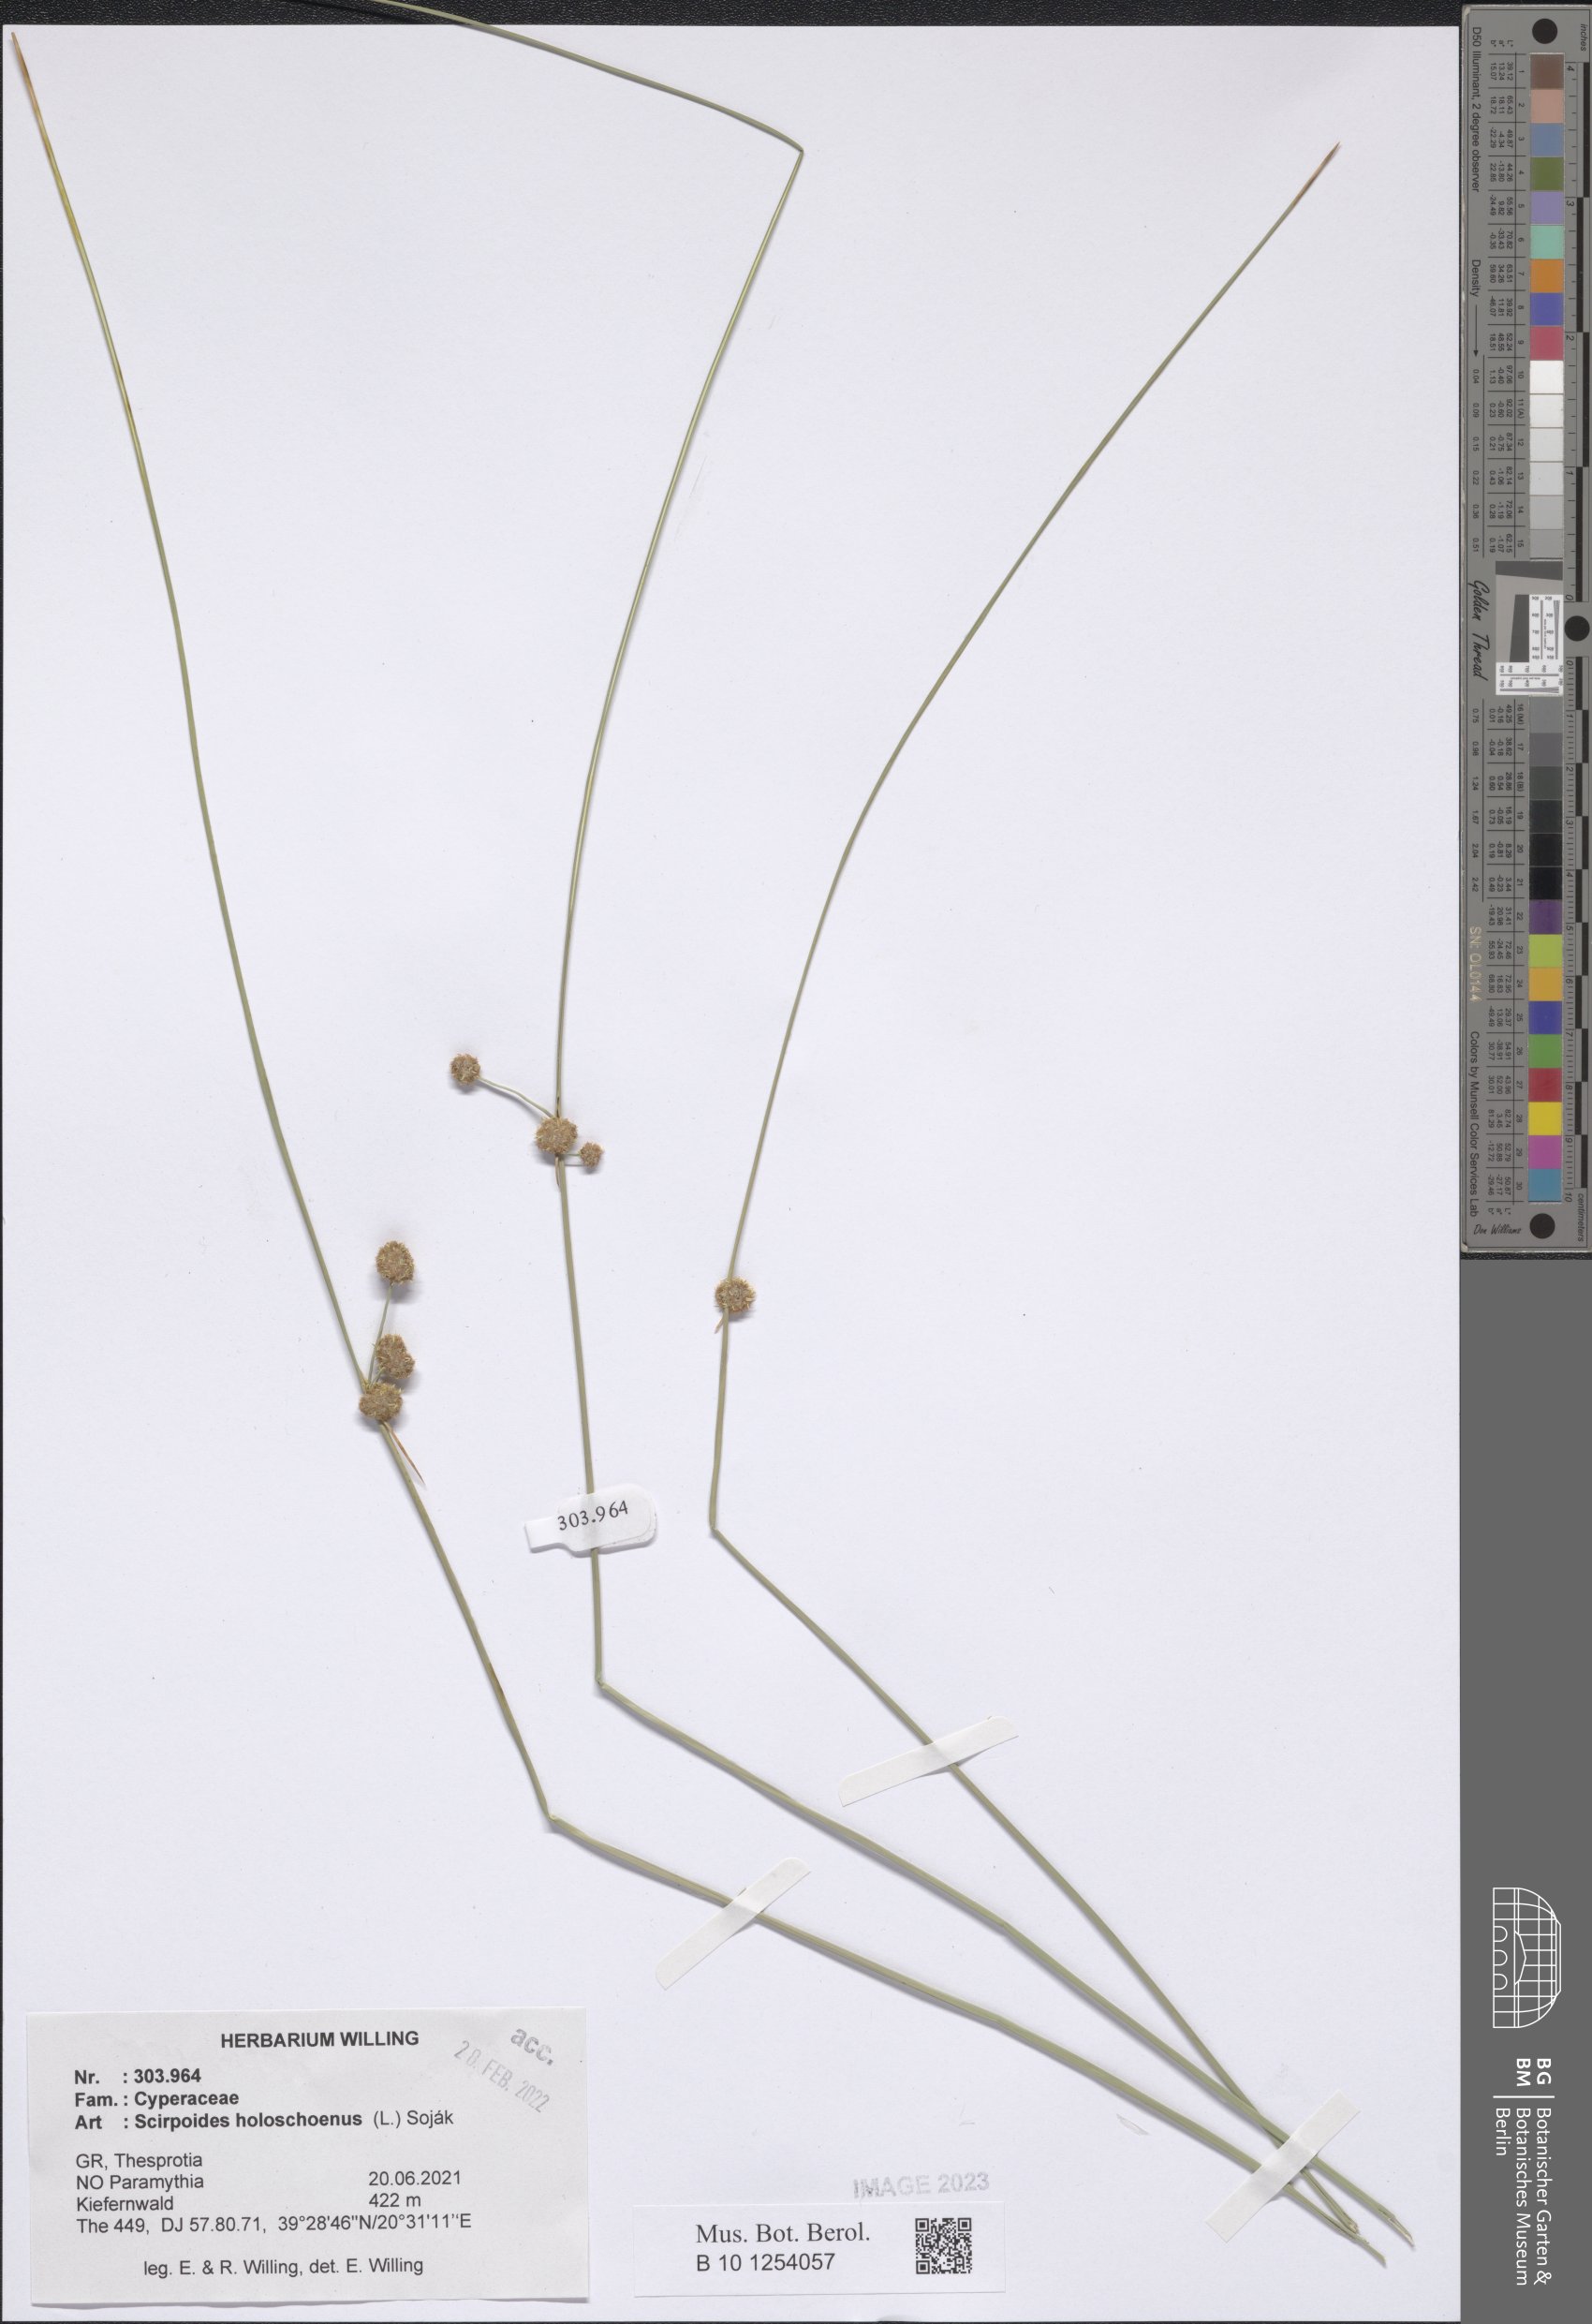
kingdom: Plantae
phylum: Tracheophyta
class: Liliopsida
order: Poales
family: Cyperaceae
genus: Scirpoides
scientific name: Scirpoides
